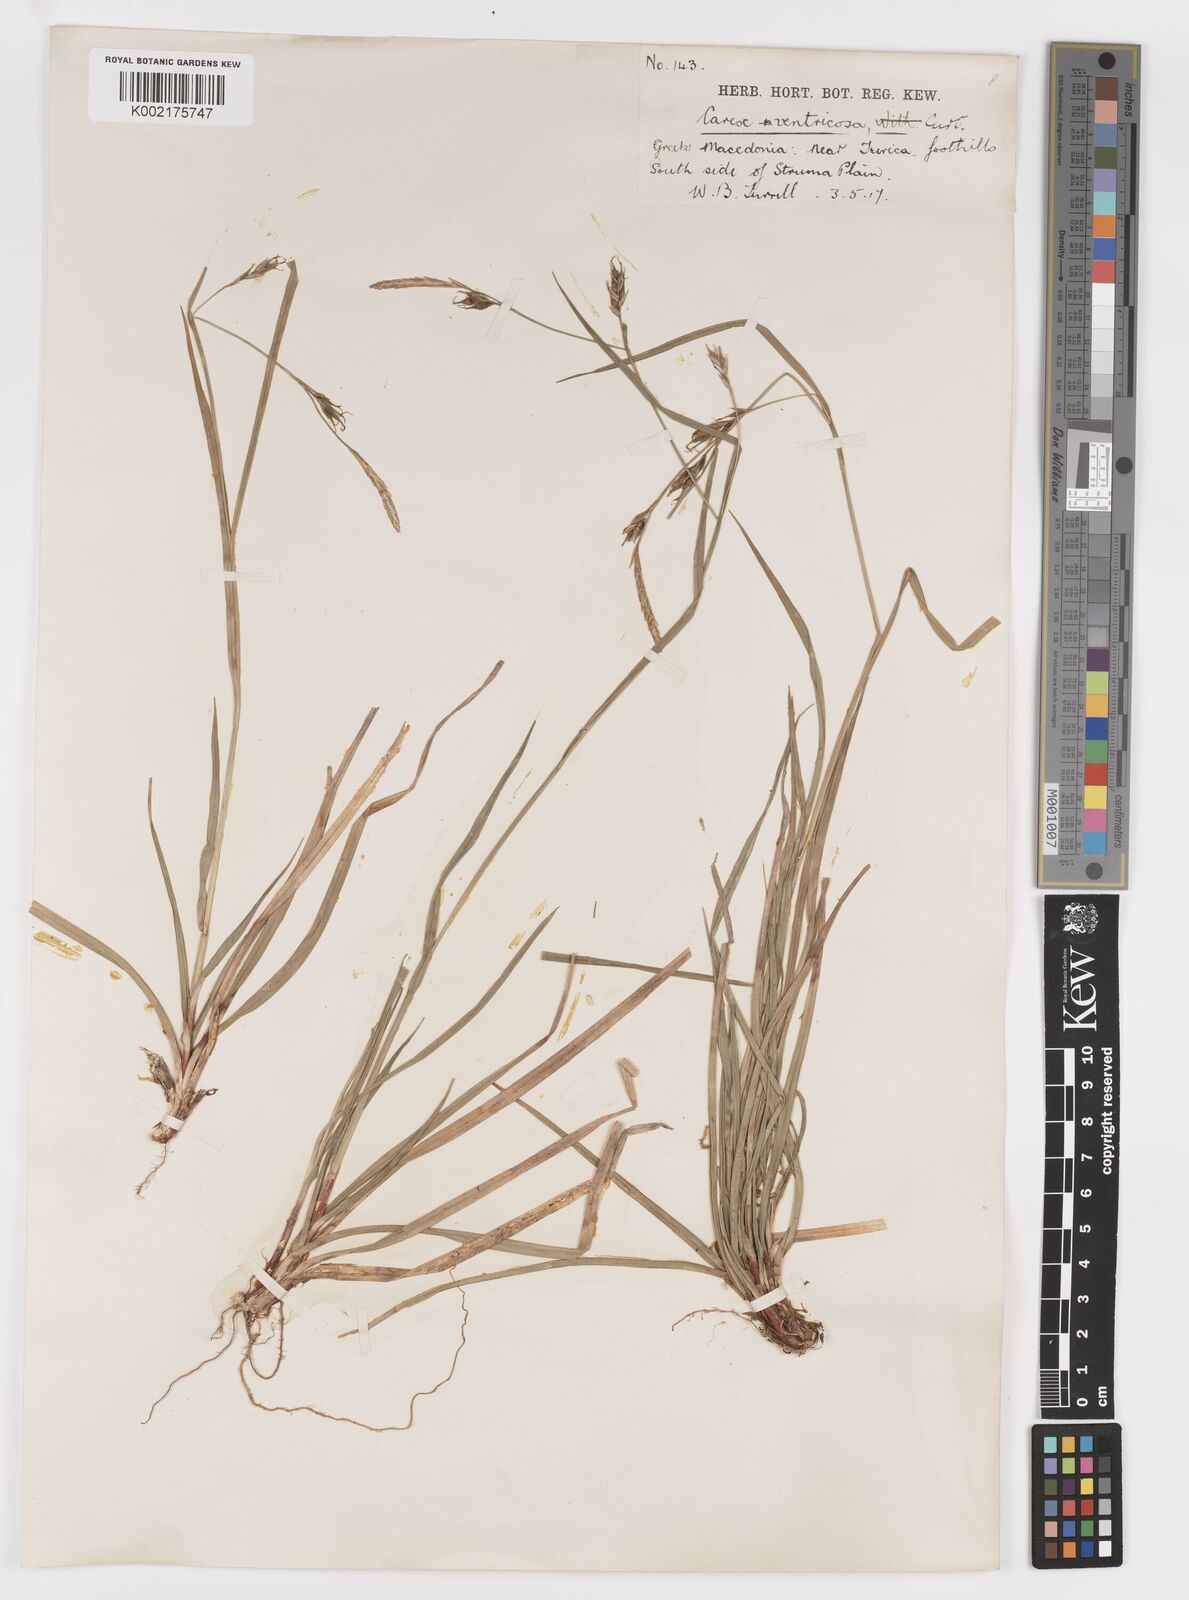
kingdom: Plantae
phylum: Tracheophyta
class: Liliopsida
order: Poales
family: Cyperaceae
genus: Carex
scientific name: Carex
